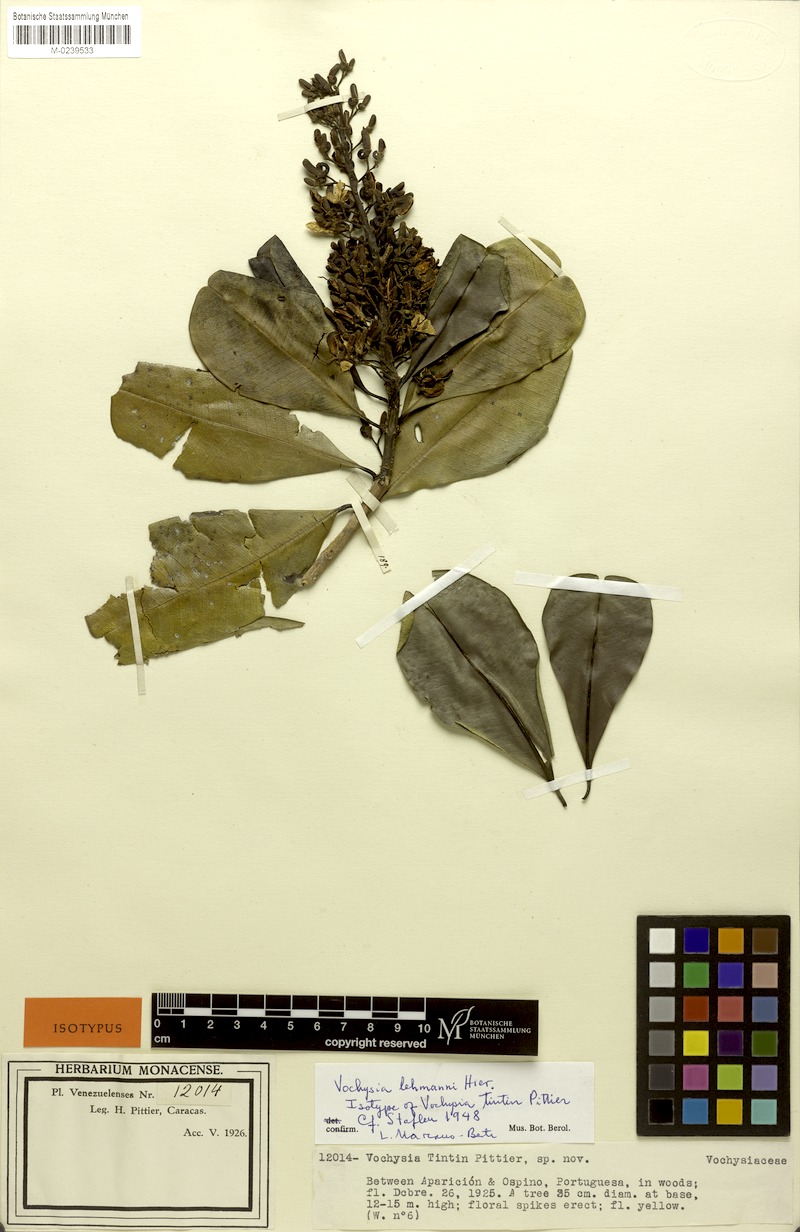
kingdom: Plantae
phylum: Tracheophyta
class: Magnoliopsida
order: Myrtales
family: Vochysiaceae
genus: Vochysia
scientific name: Vochysia lehmannii
